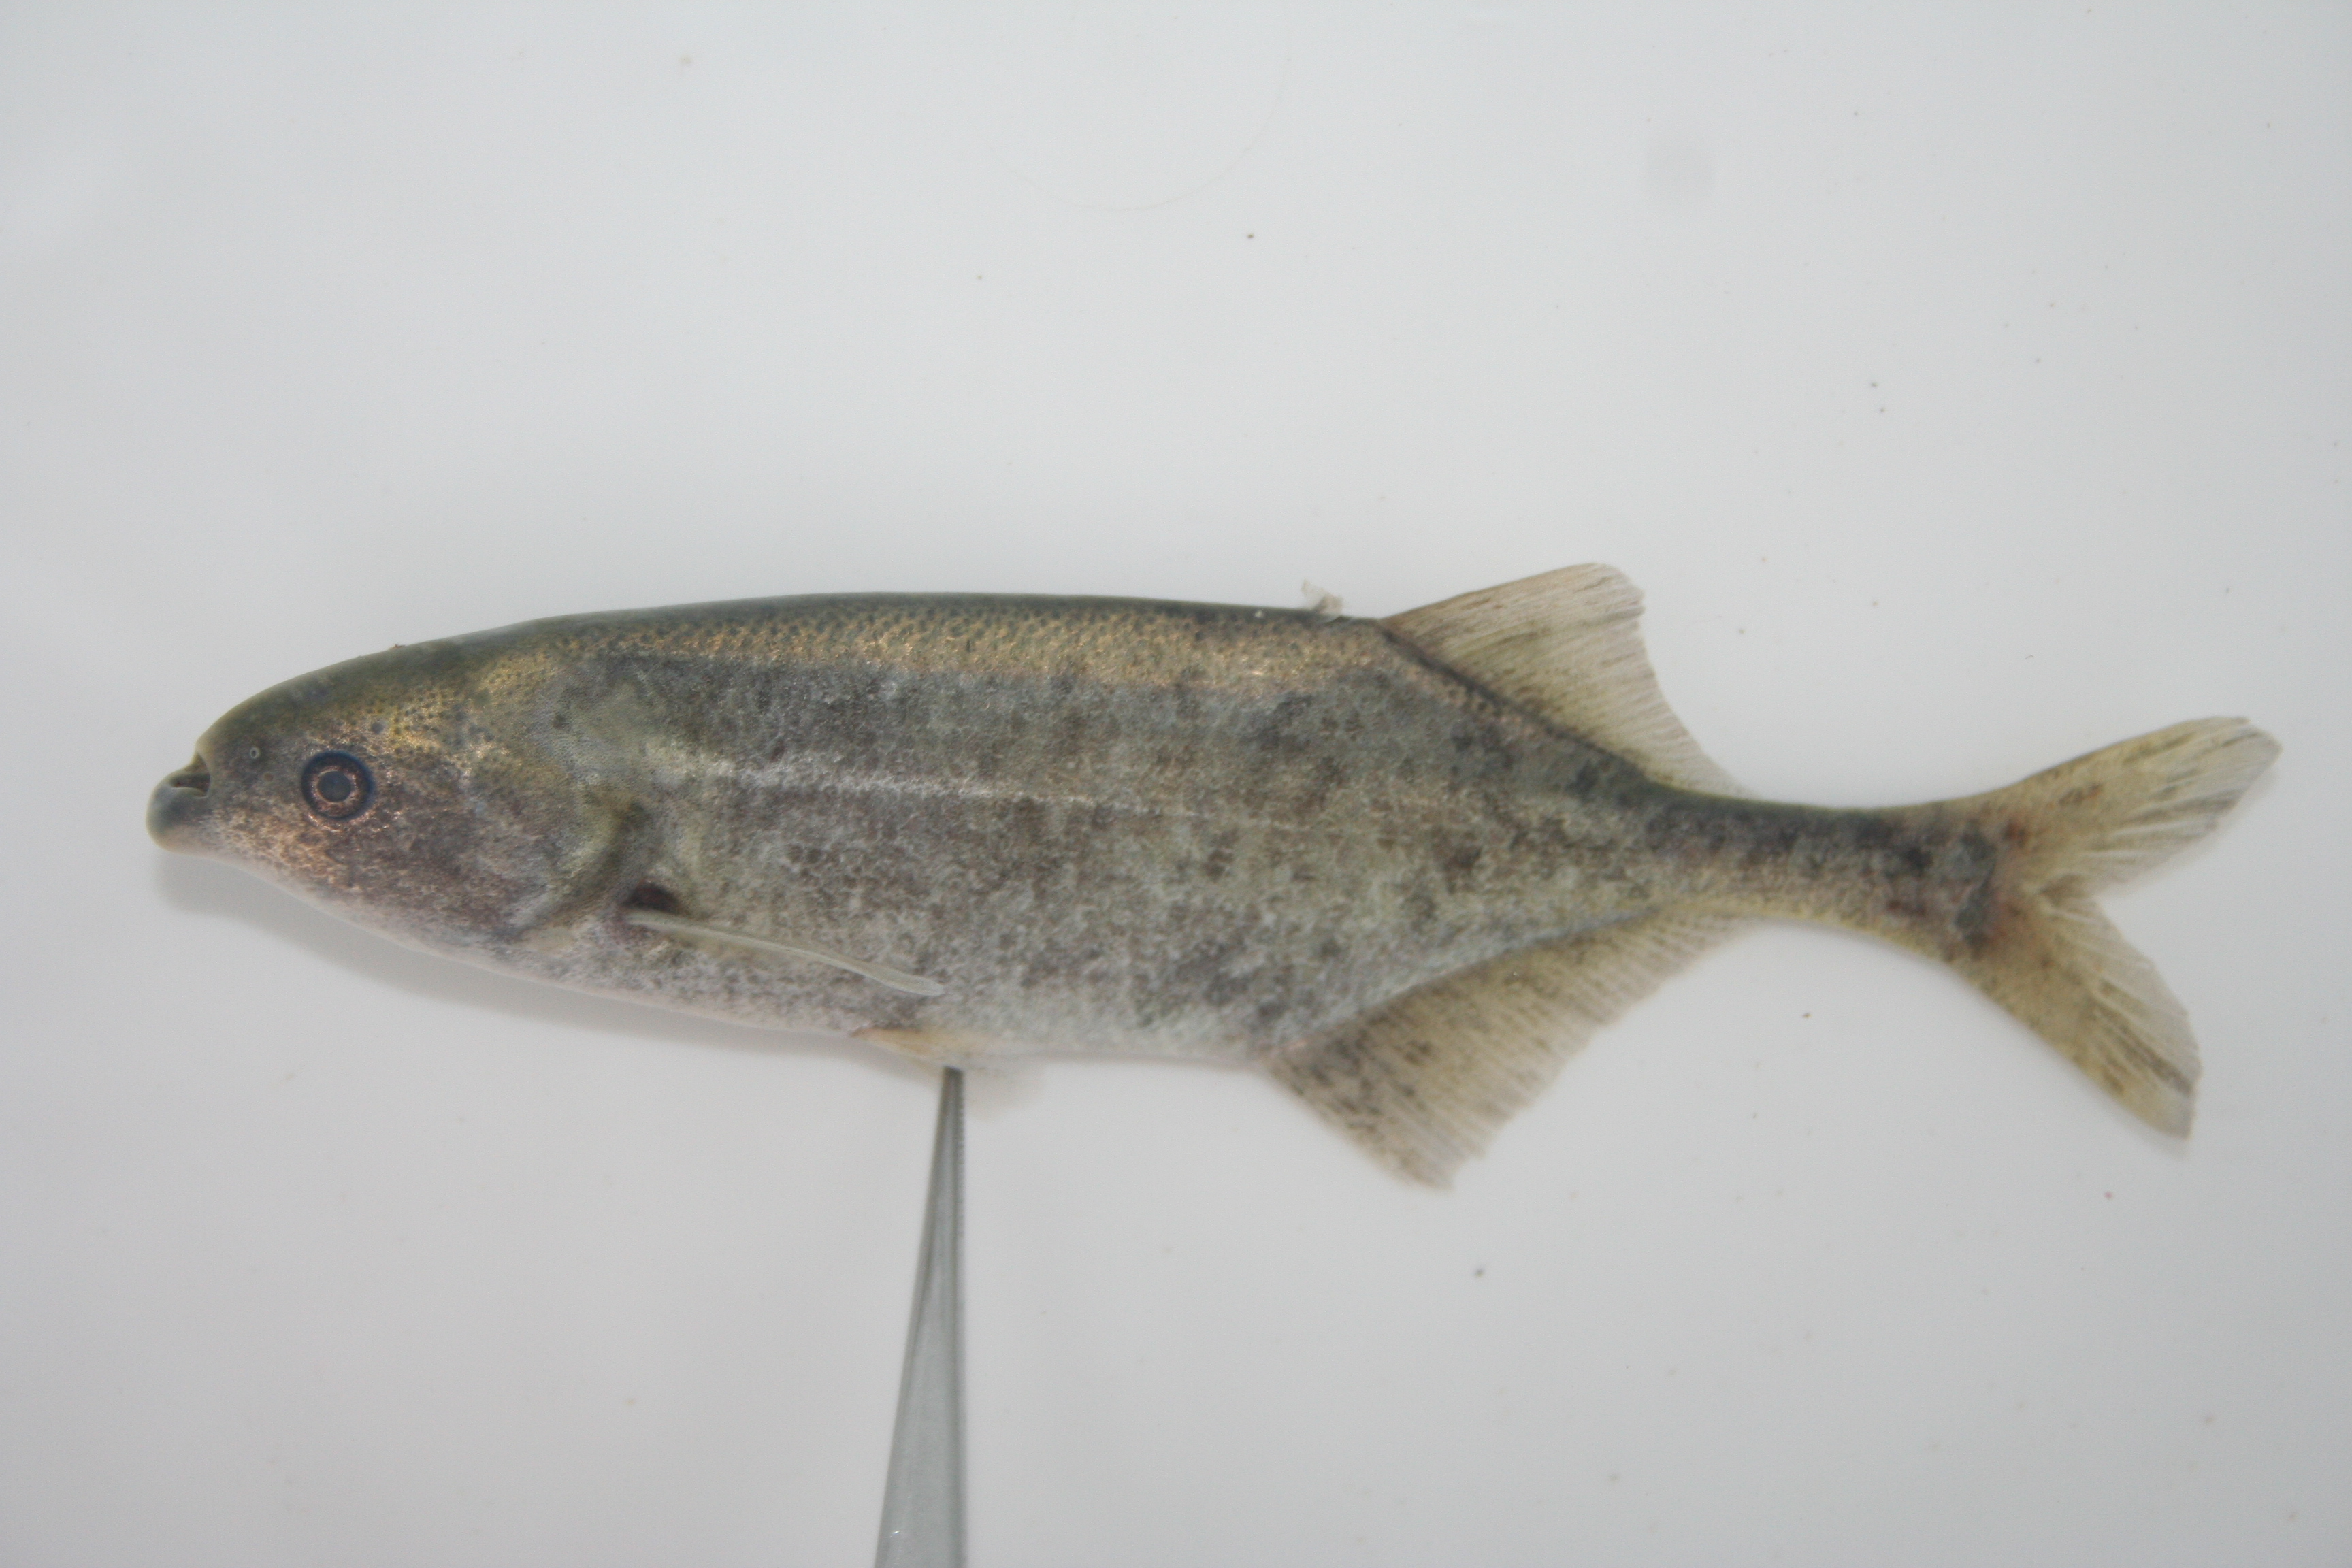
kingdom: Animalia
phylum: Chordata
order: Osteoglossiformes
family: Mormyridae
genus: Marcusenius
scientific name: Marcusenius
